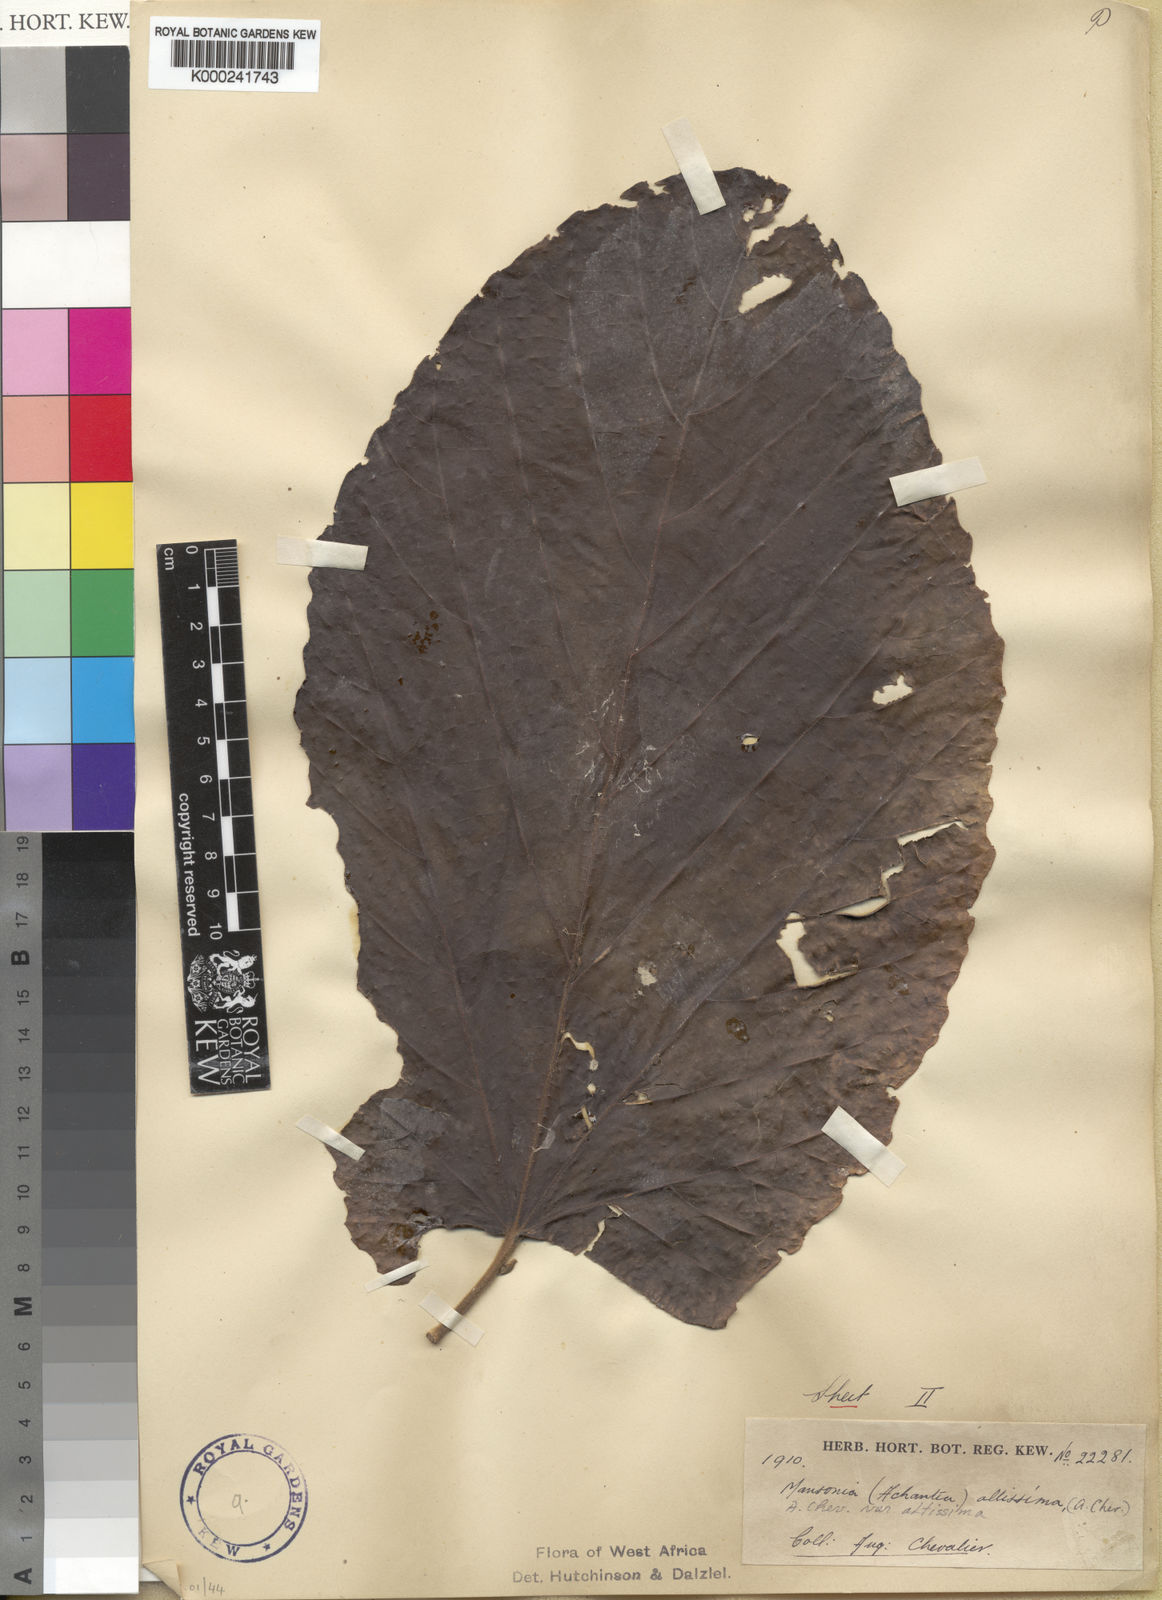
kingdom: Plantae
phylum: Tracheophyta
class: Magnoliopsida
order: Malvales
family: Malvaceae
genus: Mansonia
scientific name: Mansonia altissima
